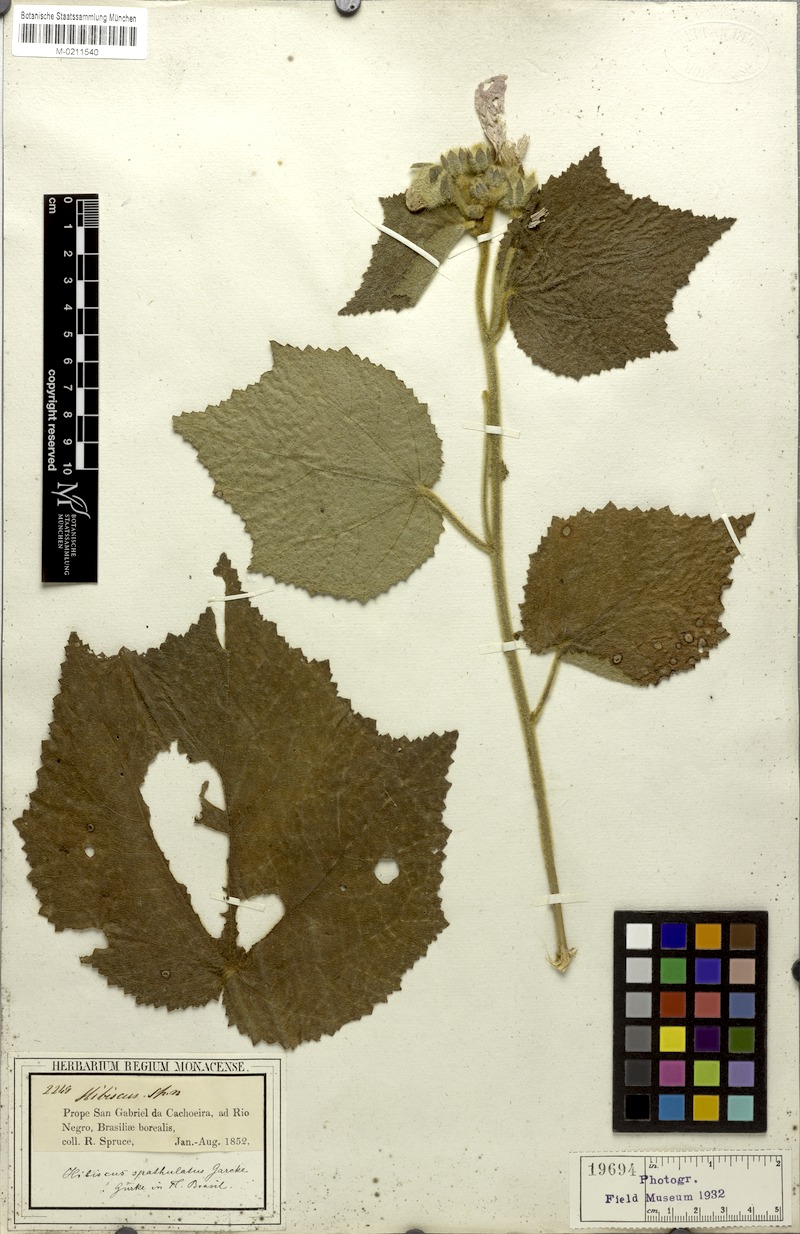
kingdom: Plantae
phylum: Tracheophyta
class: Magnoliopsida
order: Malvales
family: Malvaceae
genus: Hibiscus
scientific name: Hibiscus verbasciformis
